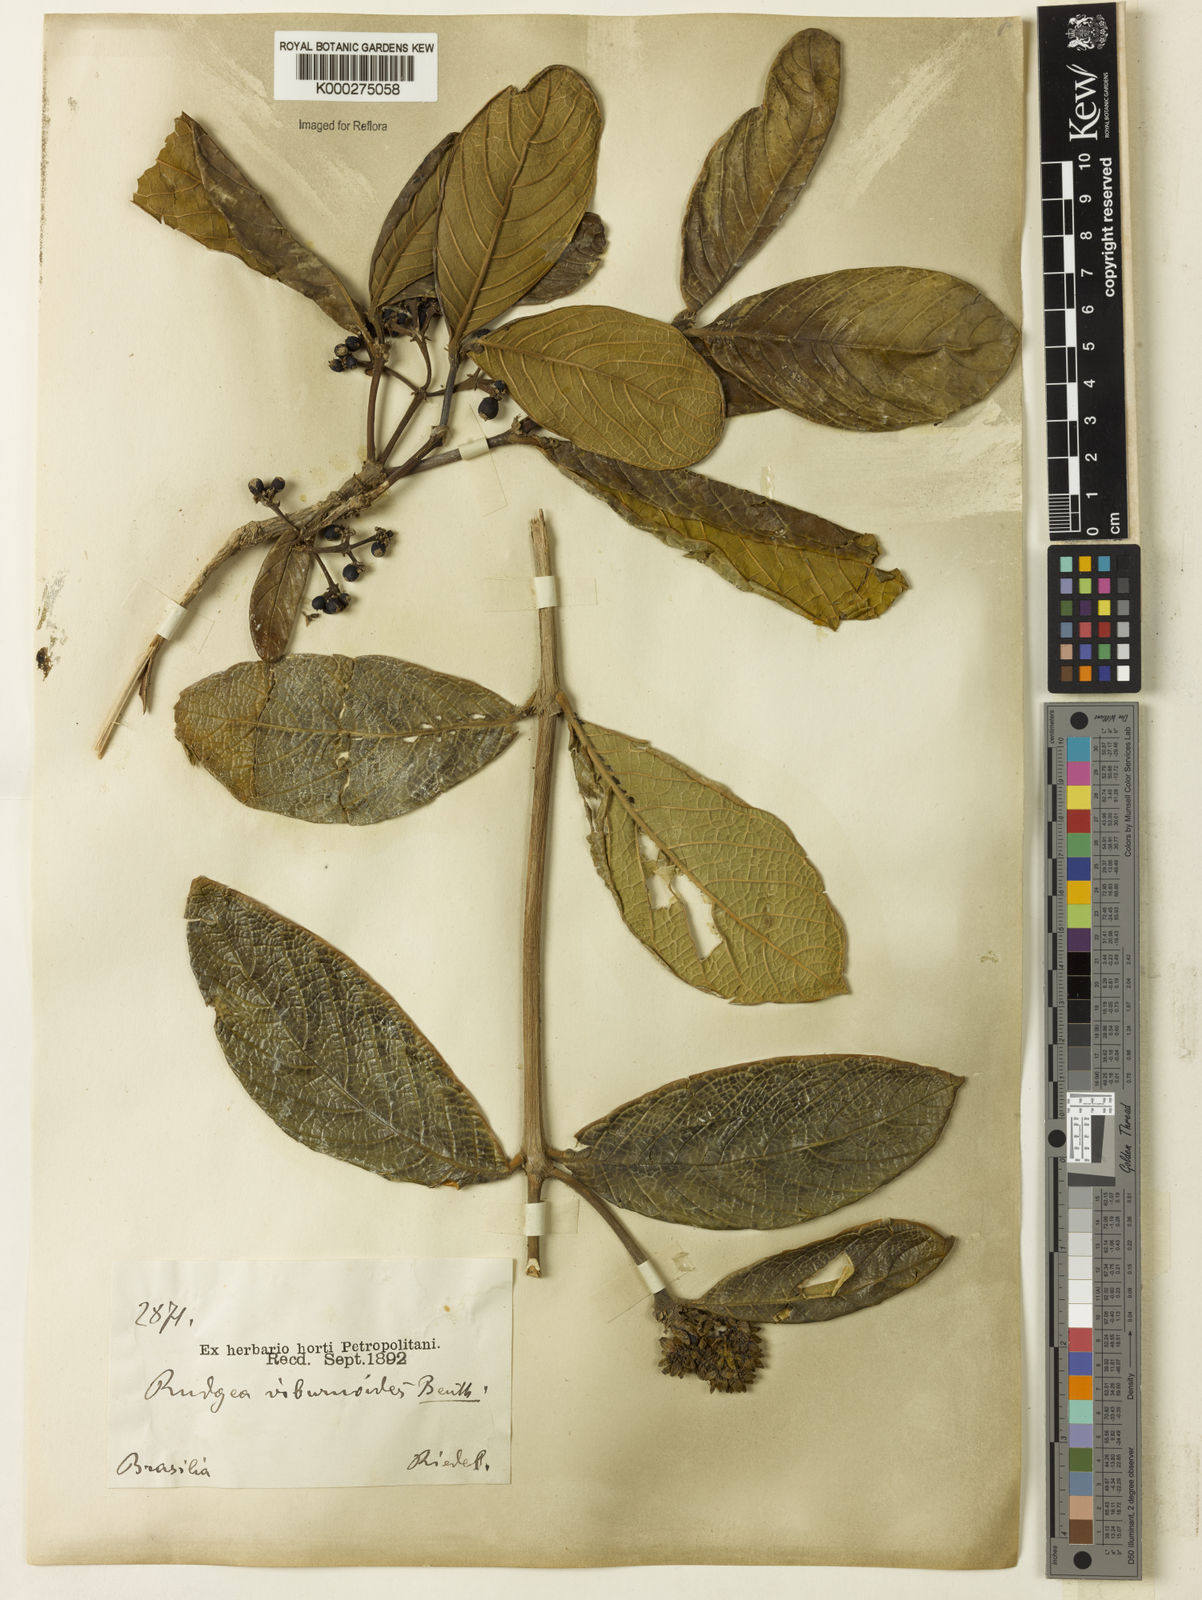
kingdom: Plantae
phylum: Tracheophyta
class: Magnoliopsida
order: Gentianales
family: Rubiaceae
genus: Rudgea
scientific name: Rudgea viburnoides
